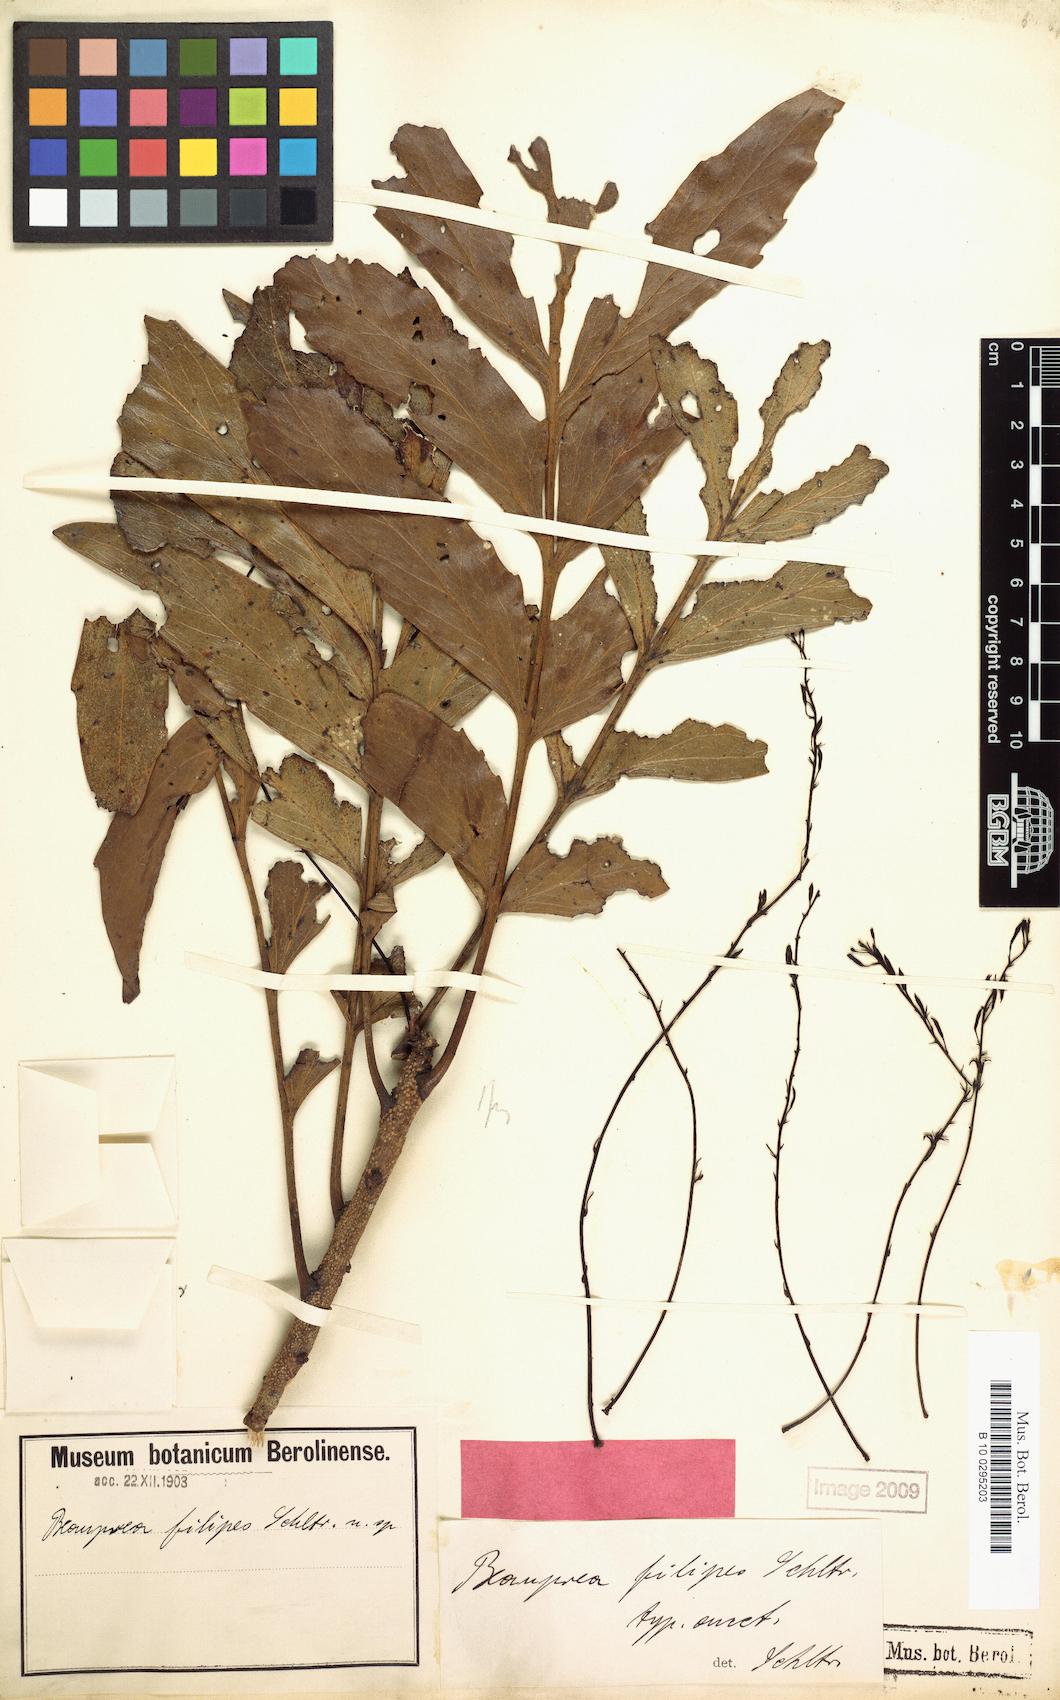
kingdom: Plantae
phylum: Tracheophyta
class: Magnoliopsida
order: Proteales
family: Proteaceae
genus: Beauprea
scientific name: Beauprea filipes
